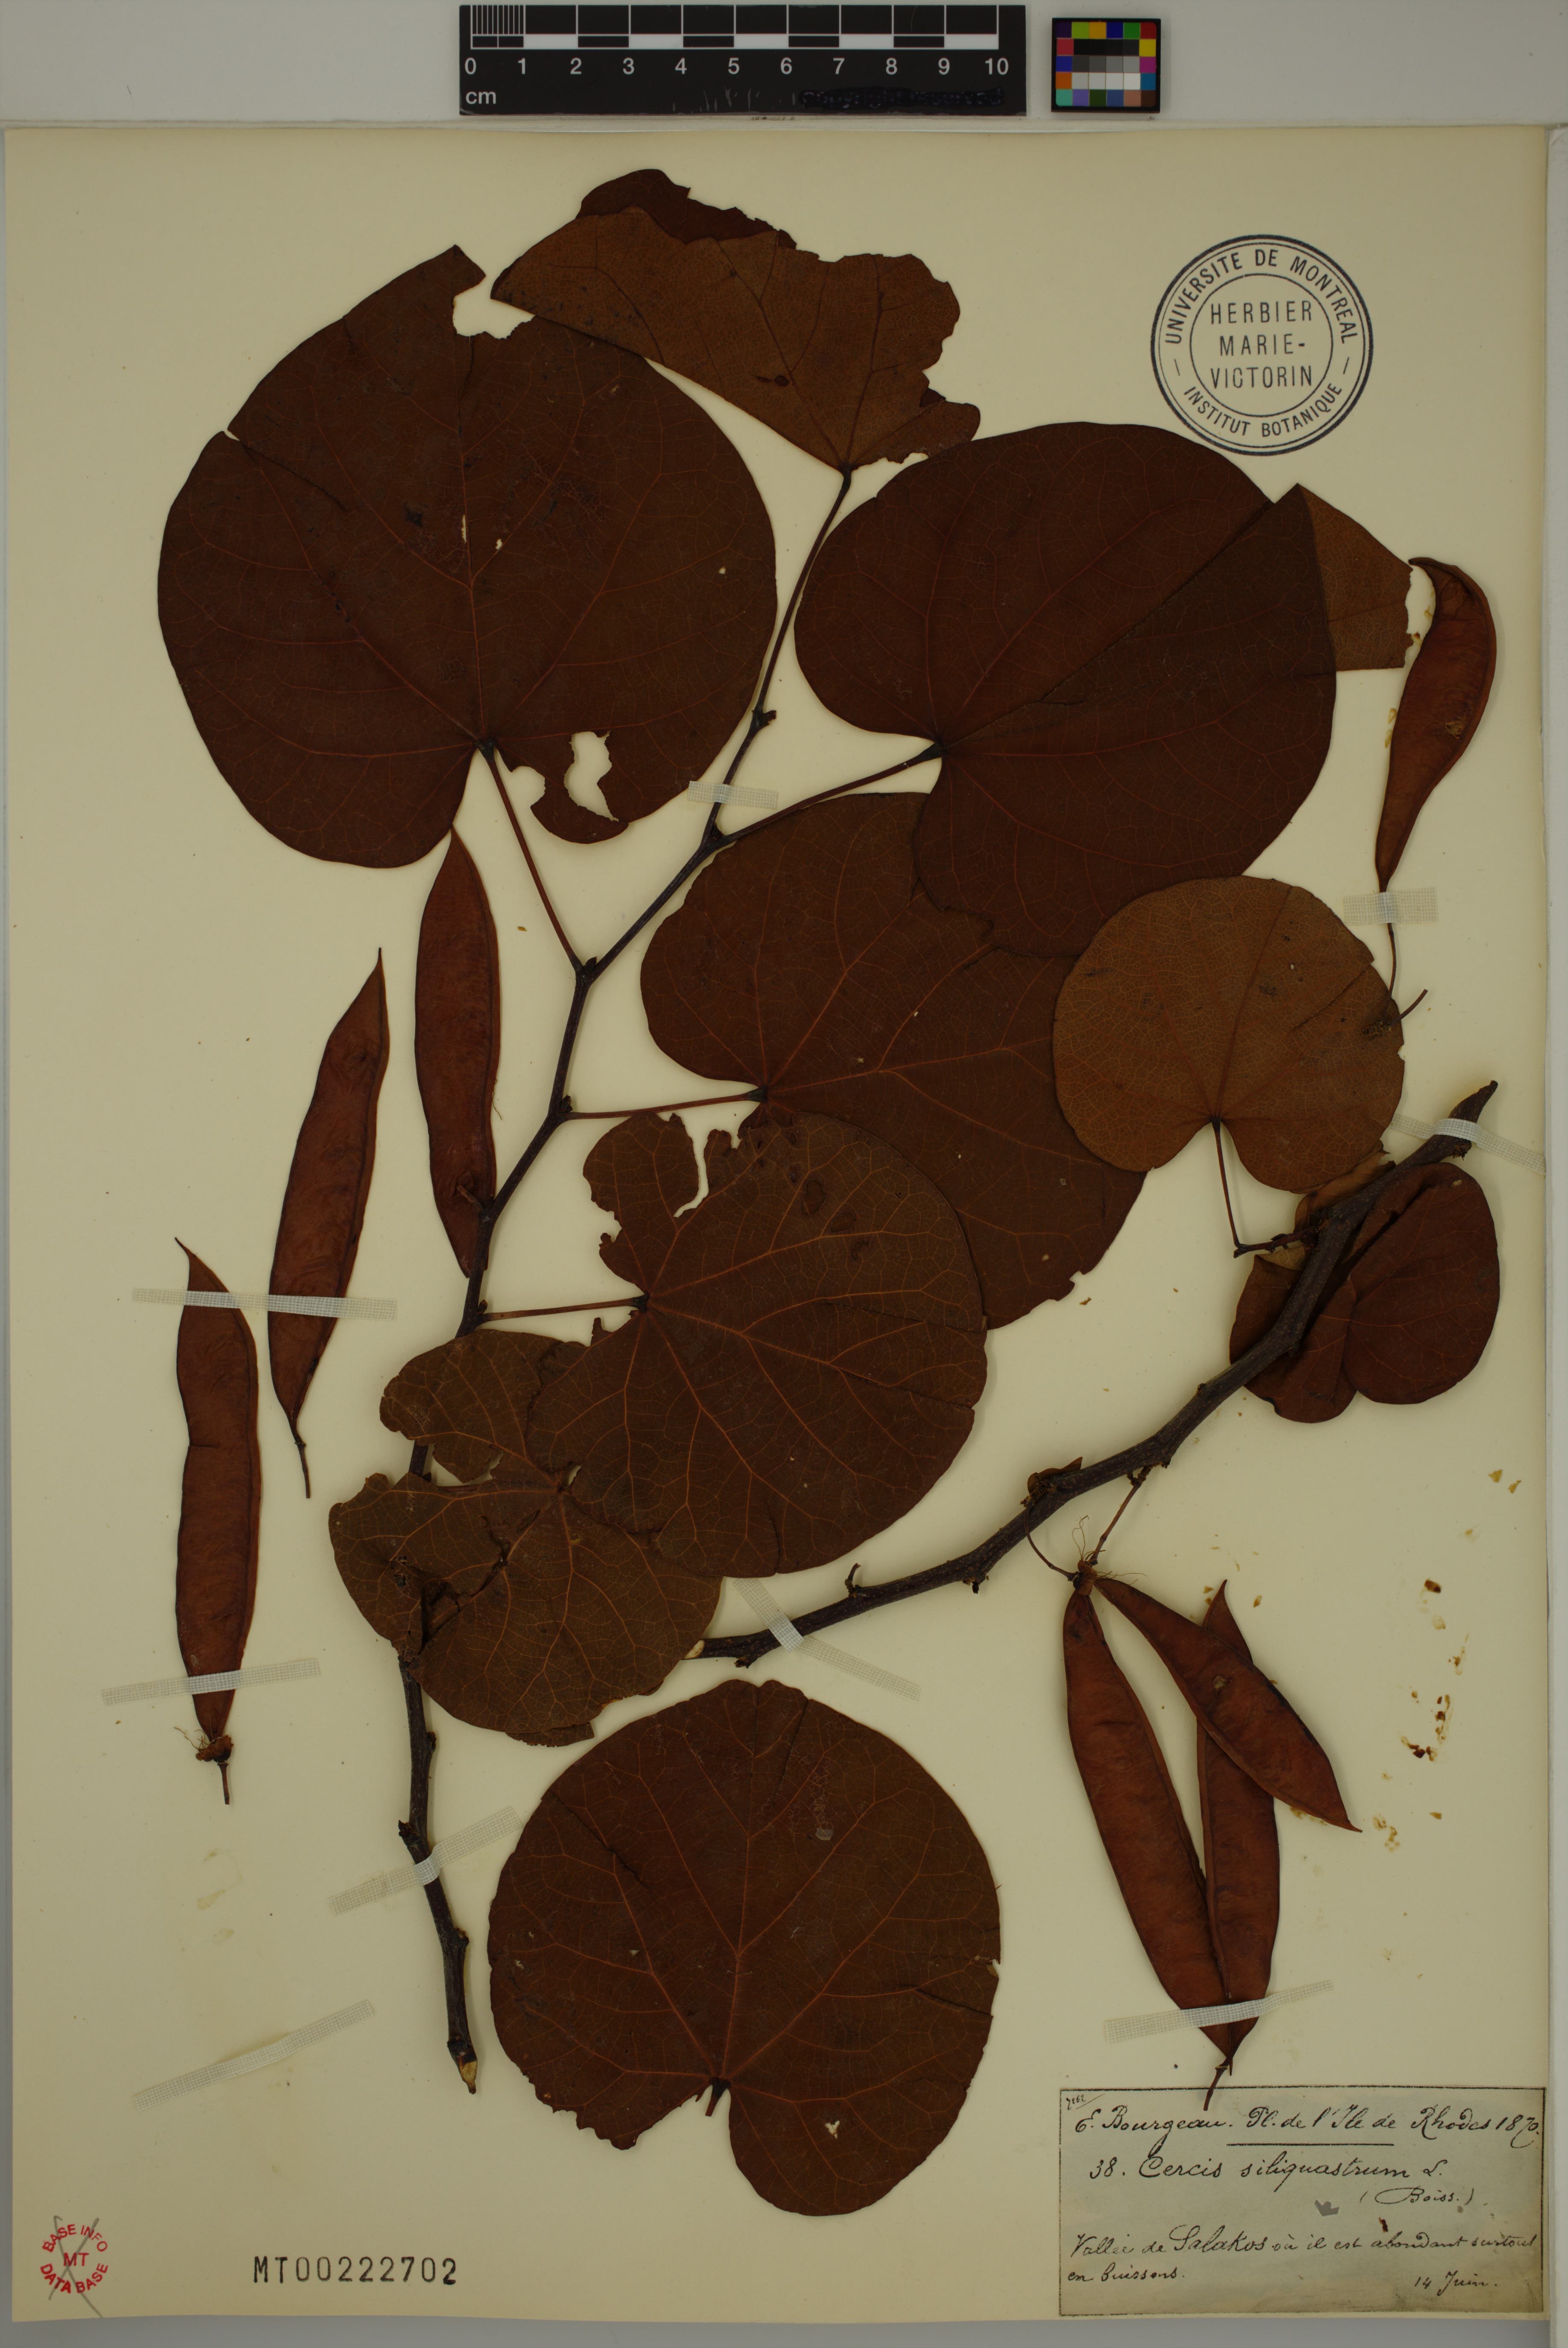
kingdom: Plantae
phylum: Tracheophyta
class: Magnoliopsida
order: Fabales
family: Fabaceae
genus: Cercis
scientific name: Cercis siliquastrum
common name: Judas tree
